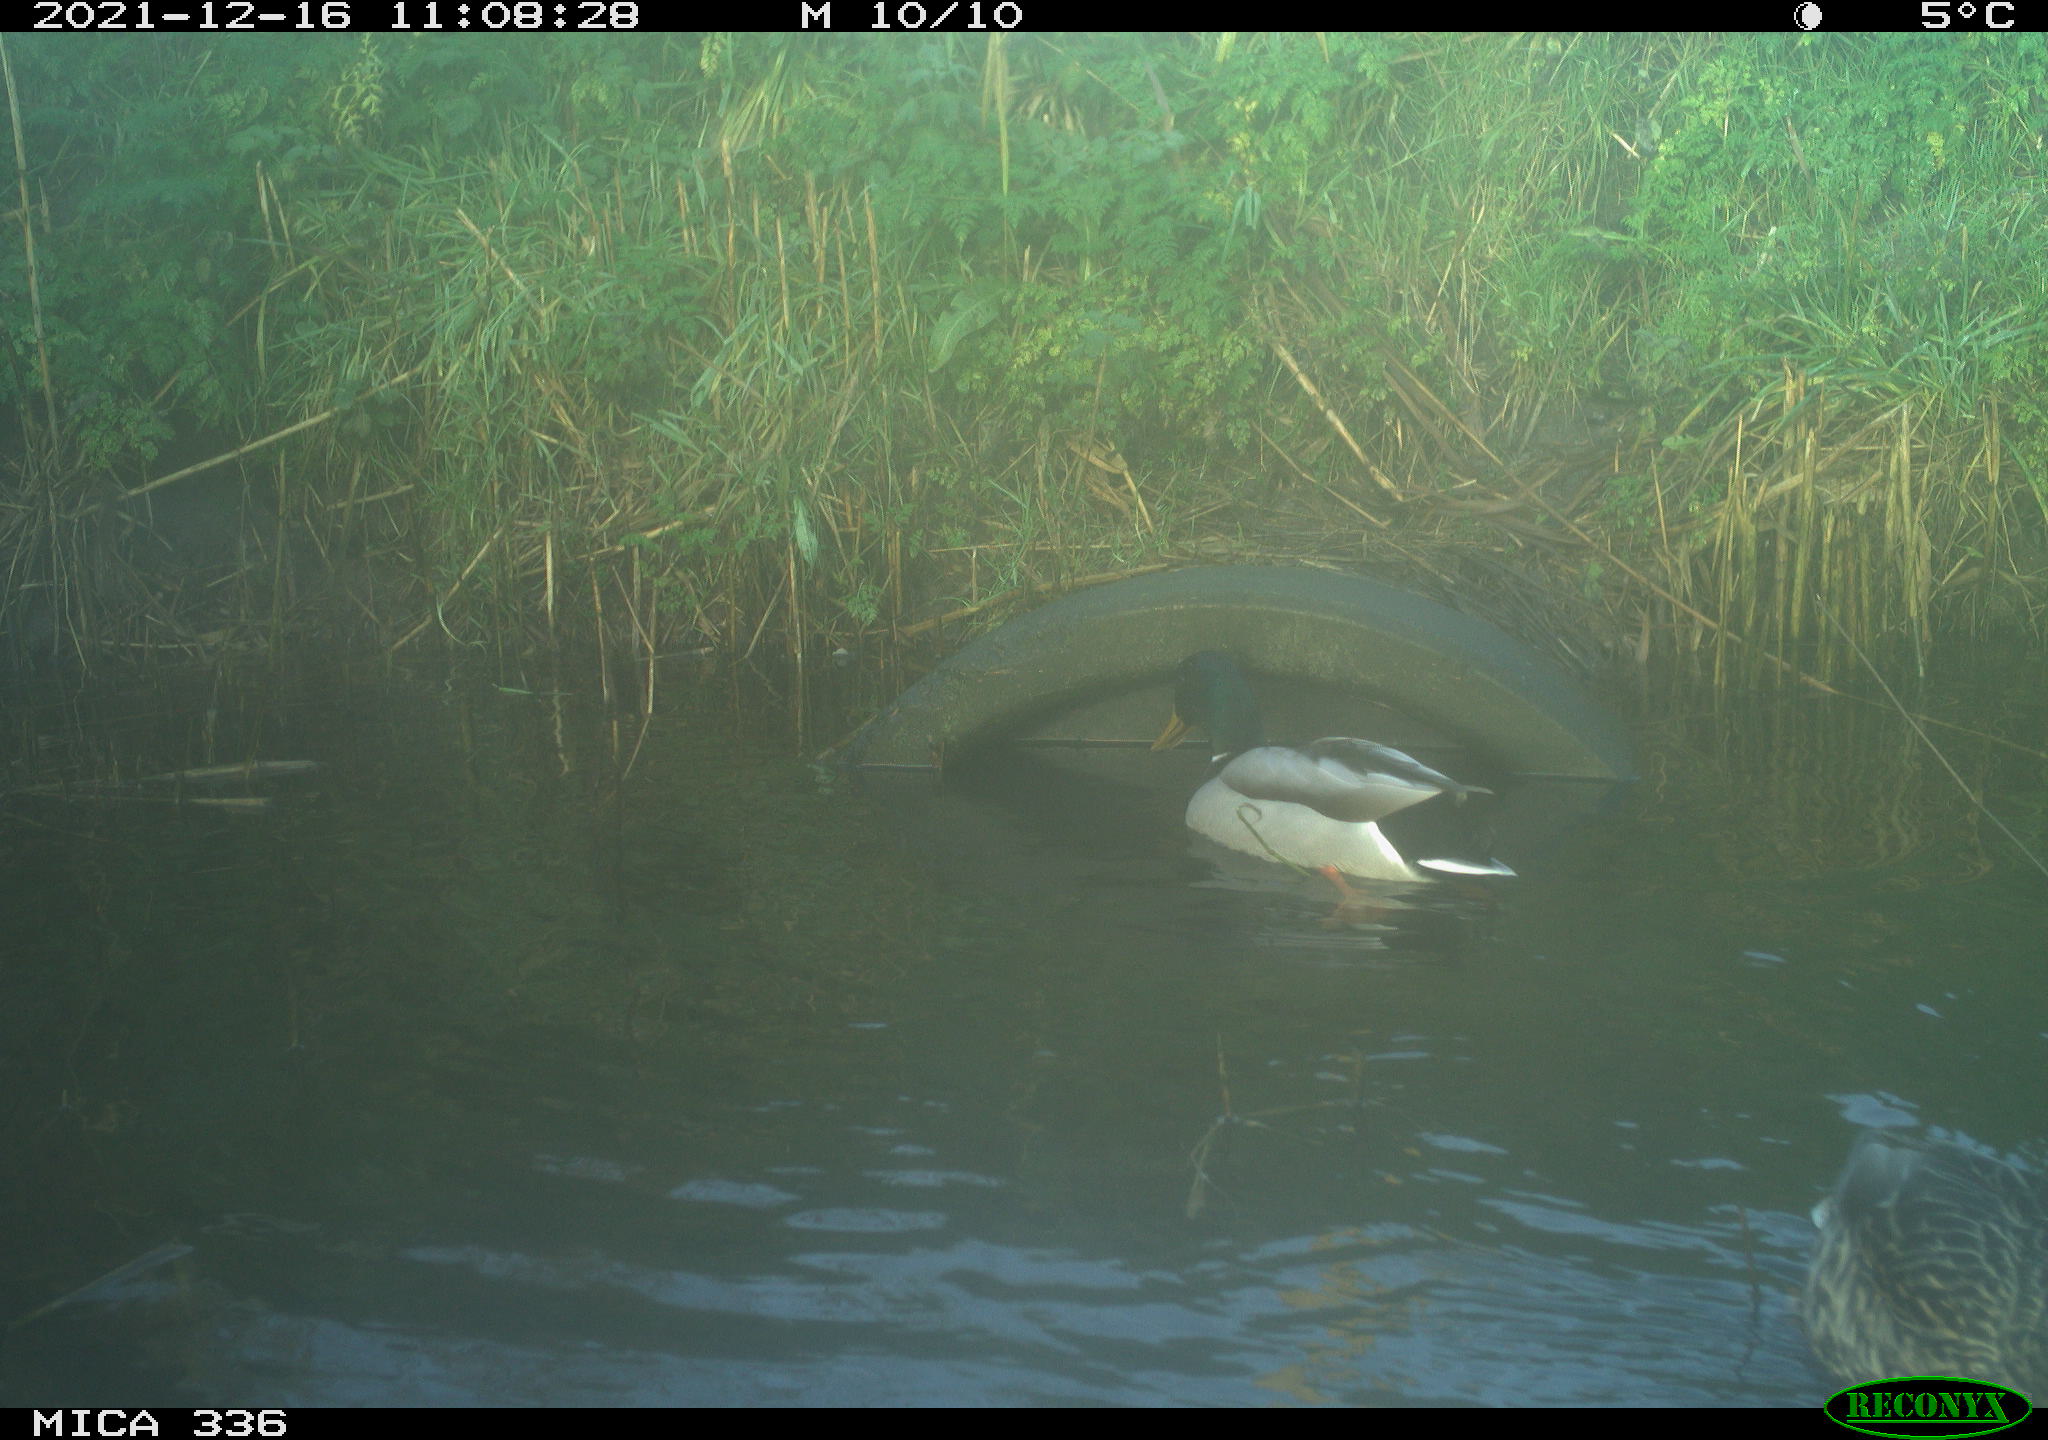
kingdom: Animalia
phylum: Chordata
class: Aves
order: Anseriformes
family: Anatidae
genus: Anas
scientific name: Anas platyrhynchos
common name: Mallard
